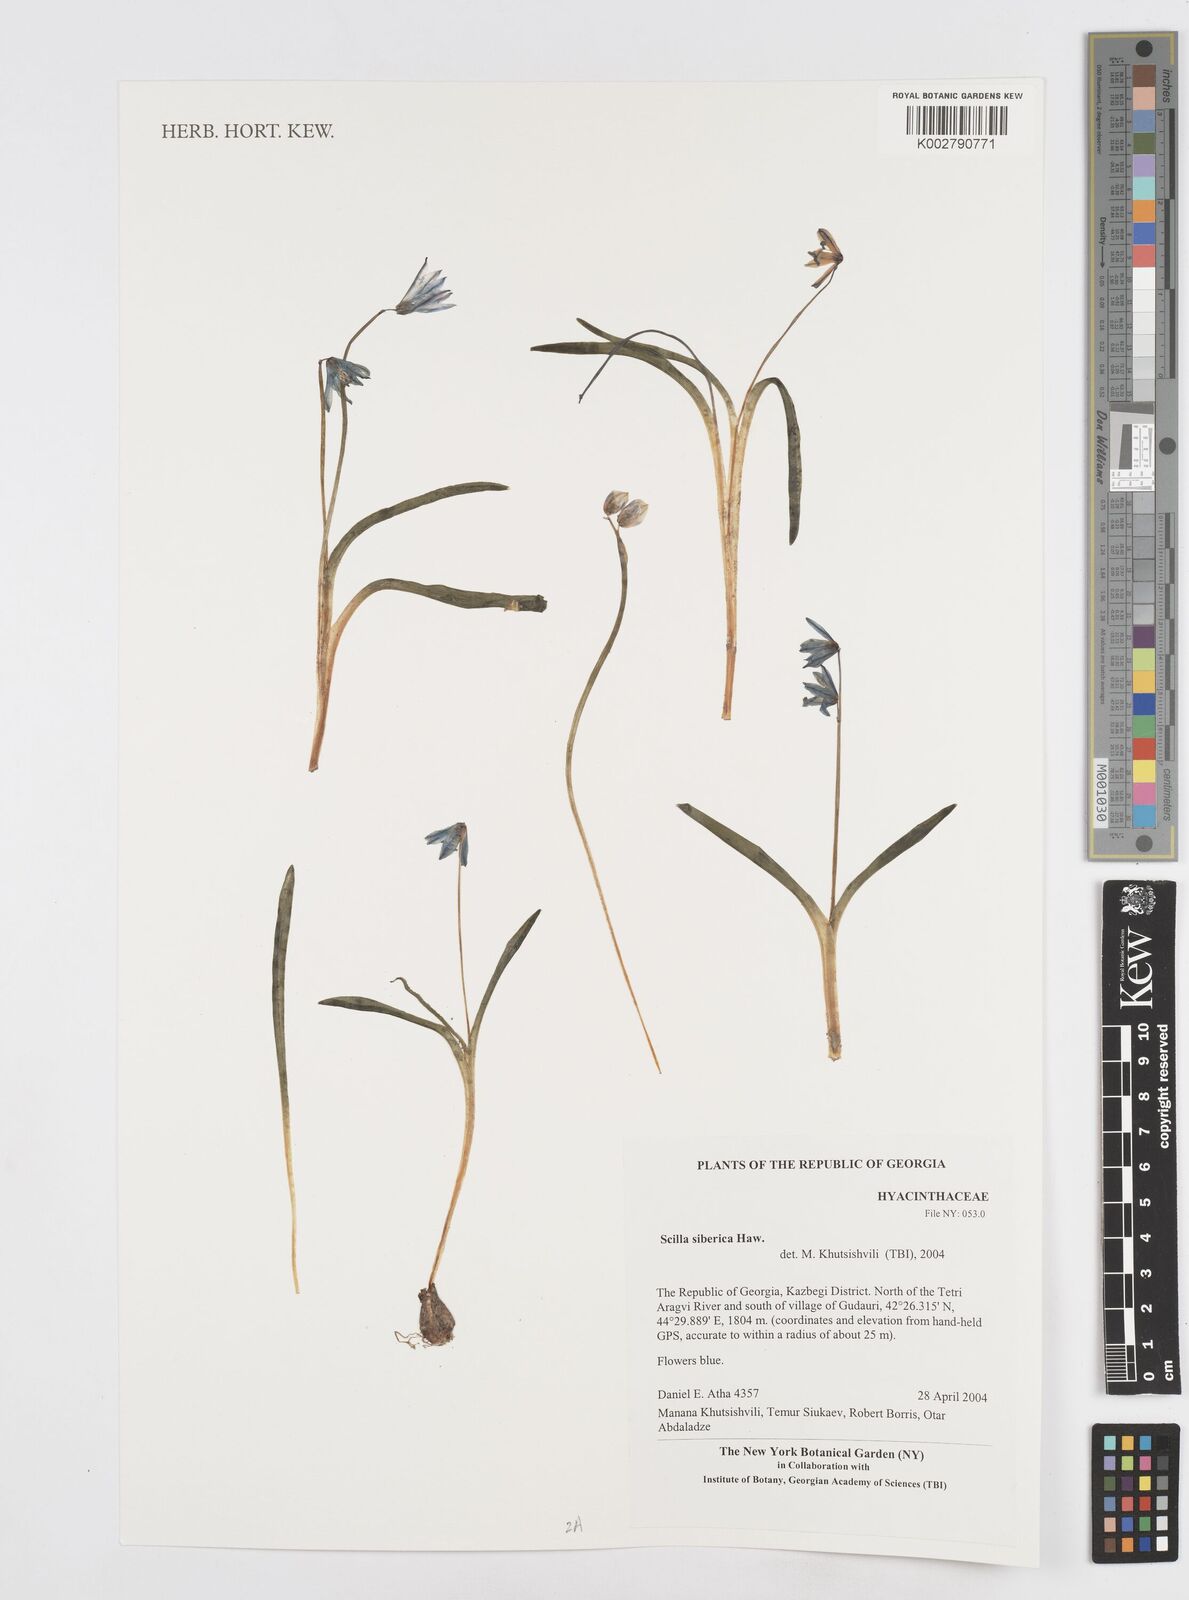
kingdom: Plantae
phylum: Tracheophyta
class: Liliopsida
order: Asparagales
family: Asparagaceae
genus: Scilla
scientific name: Scilla siberica
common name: Siberian squill
